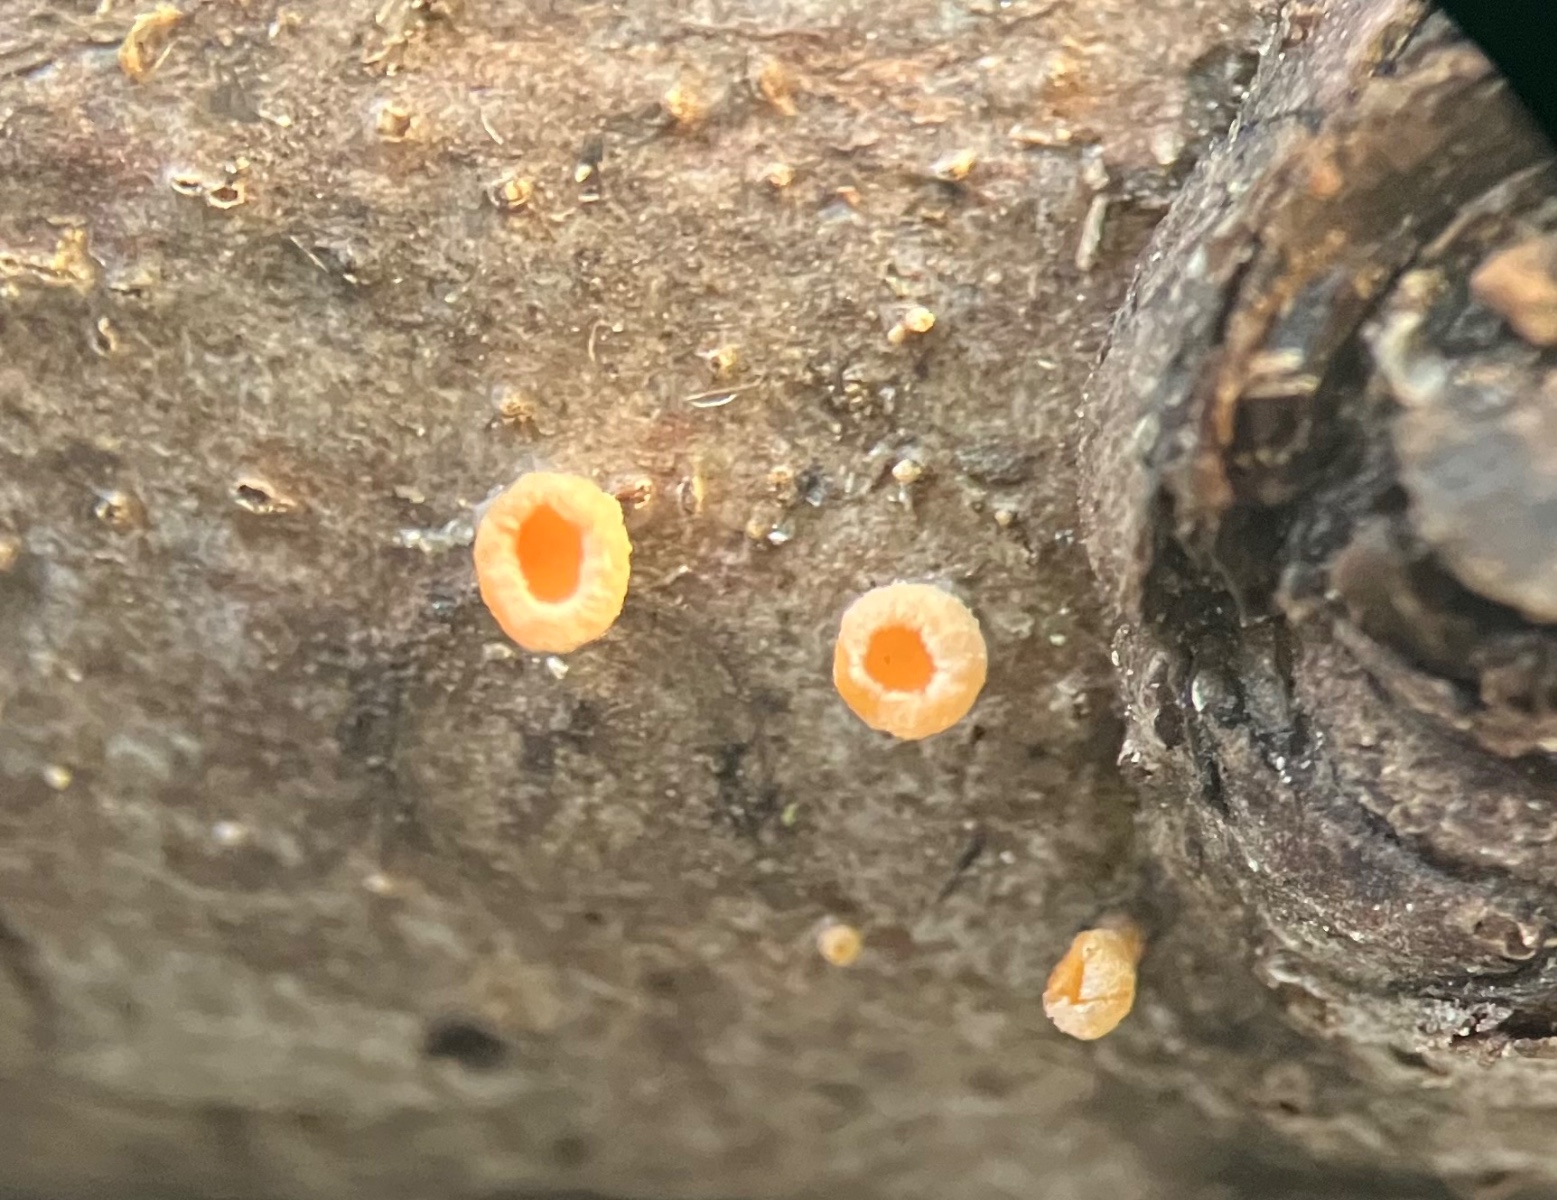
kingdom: Fungi
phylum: Ascomycota
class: Leotiomycetes
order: Helotiales
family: Lachnaceae
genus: Lachnellula
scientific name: Lachnellula subtilissima
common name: gran-frynseskive
